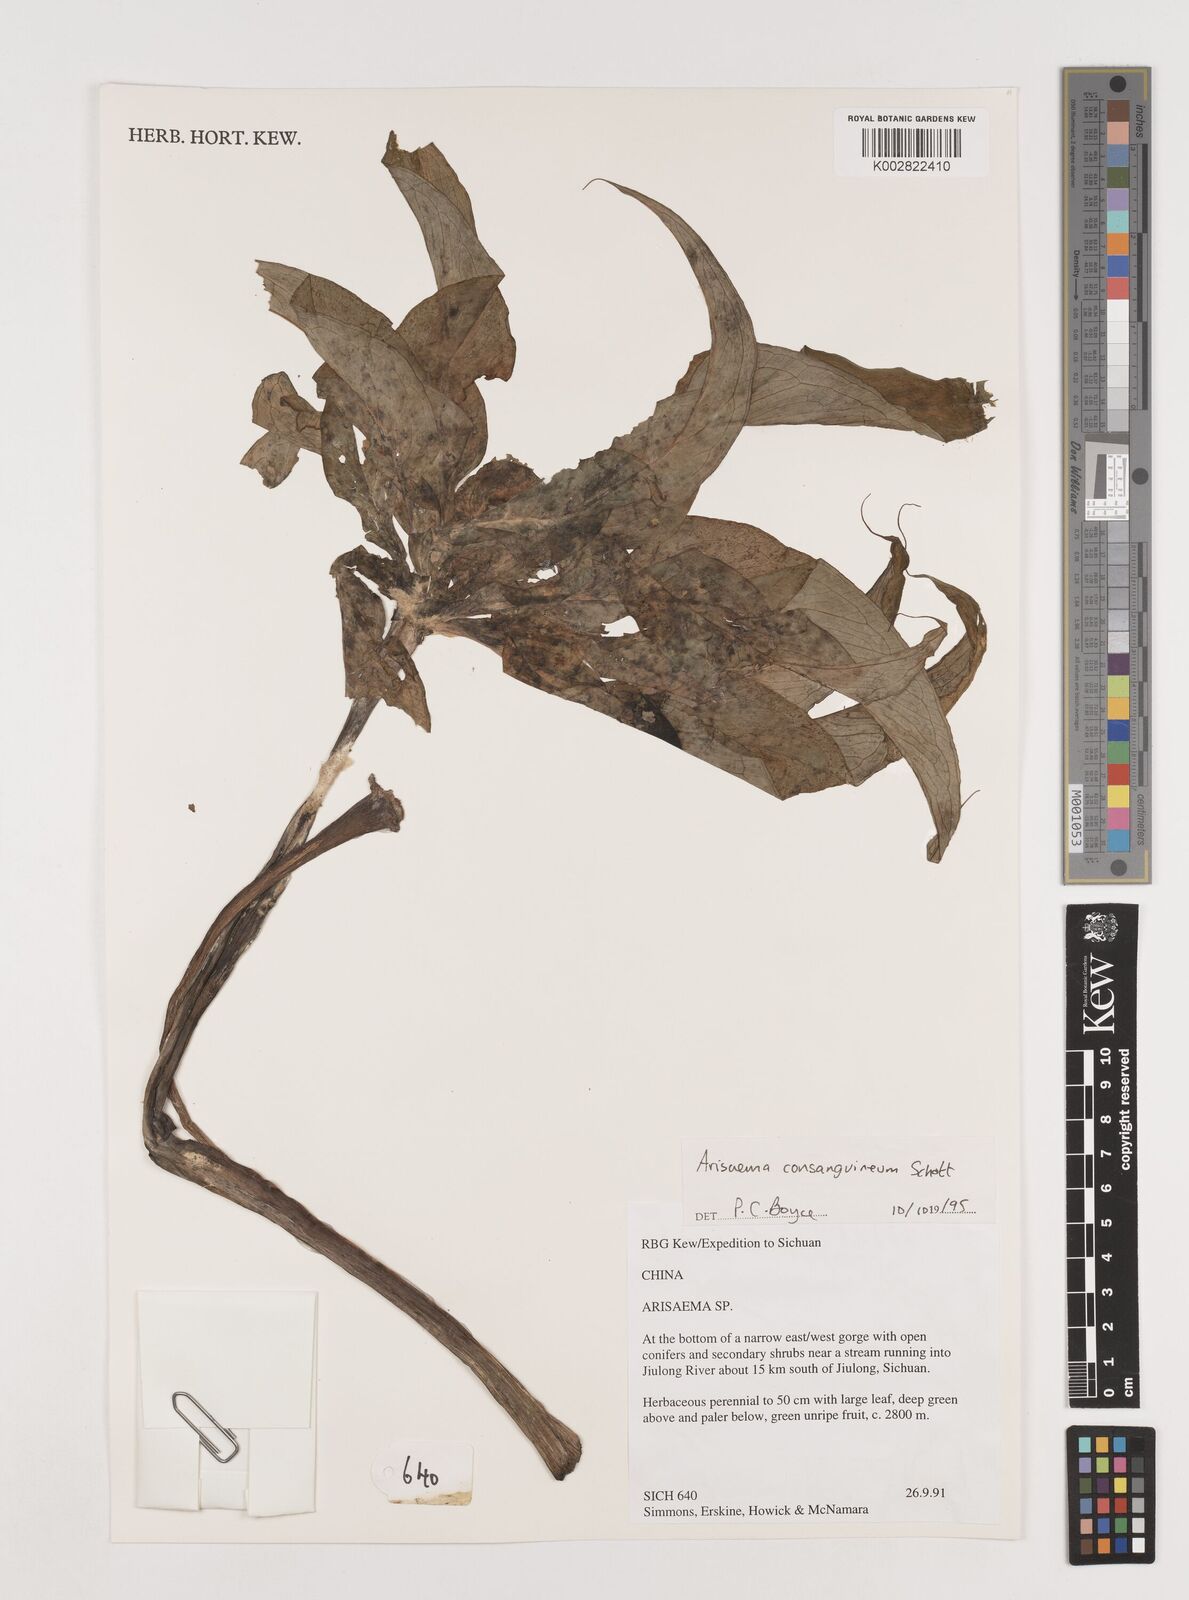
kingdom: Plantae
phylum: Tracheophyta
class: Liliopsida
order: Alismatales
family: Araceae
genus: Arisaema
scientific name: Arisaema erubescens
